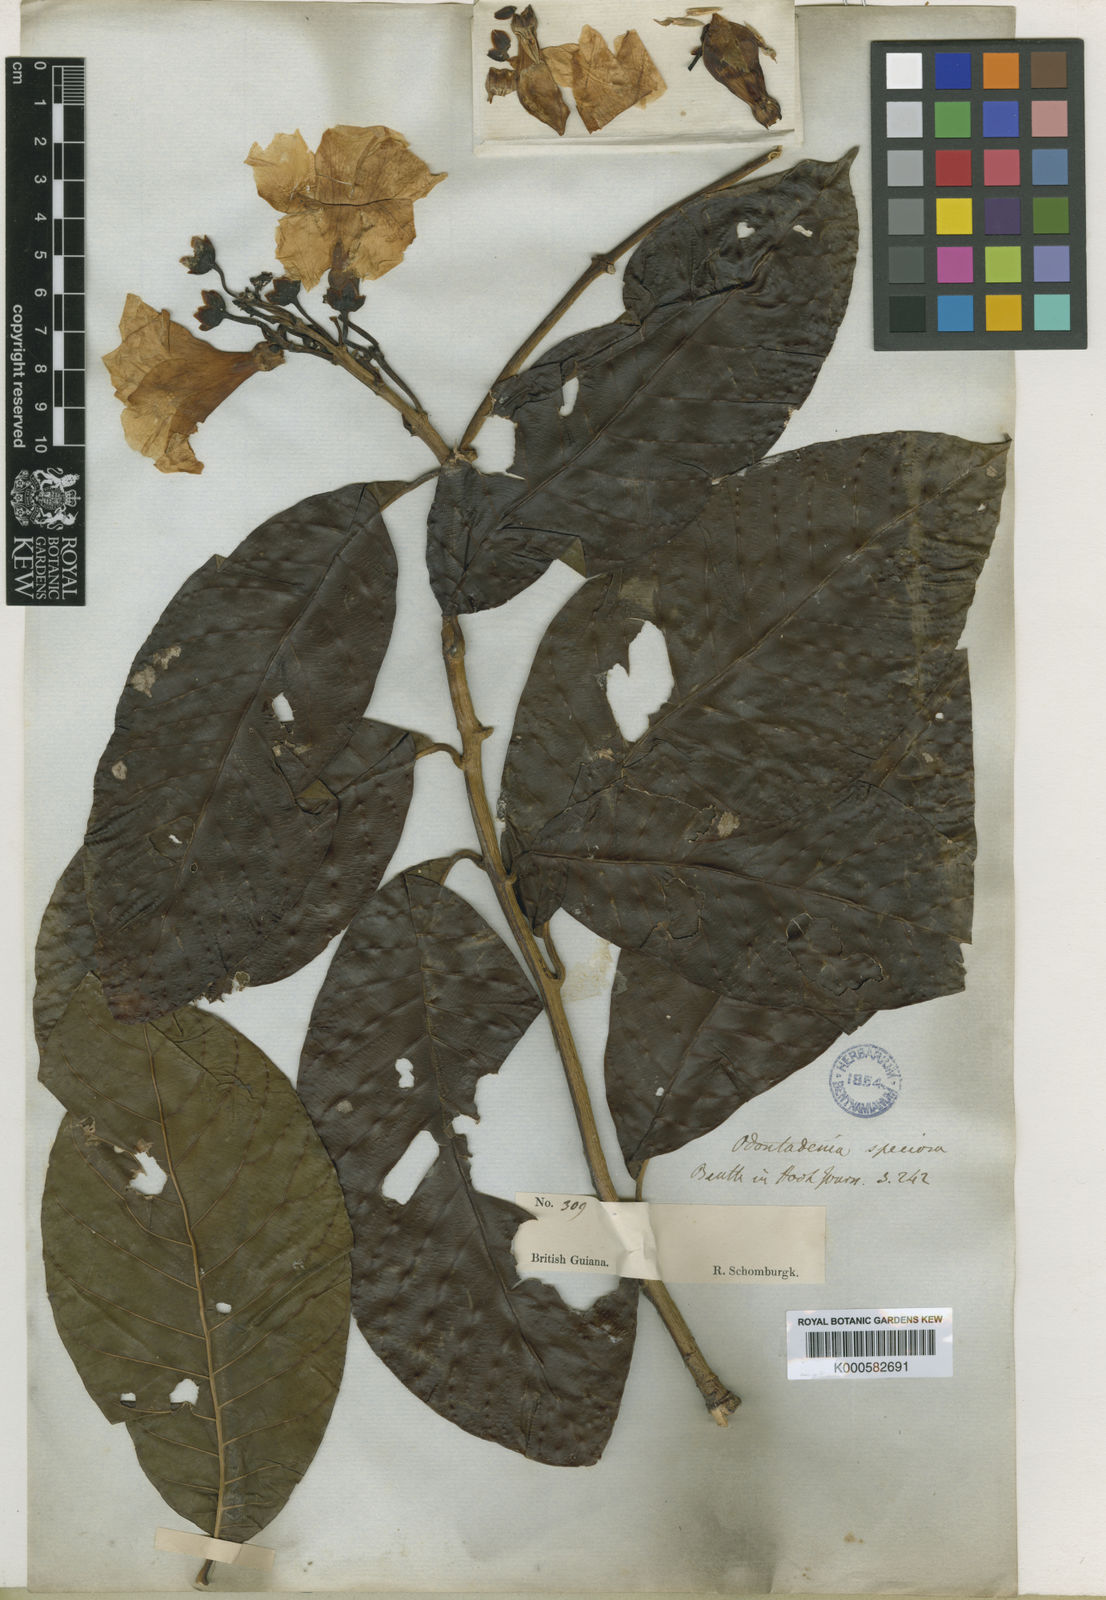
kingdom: Plantae
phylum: Tracheophyta
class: Magnoliopsida
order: Gentianales
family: Apocynaceae
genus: Odontadenia
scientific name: Odontadenia semidigyna
